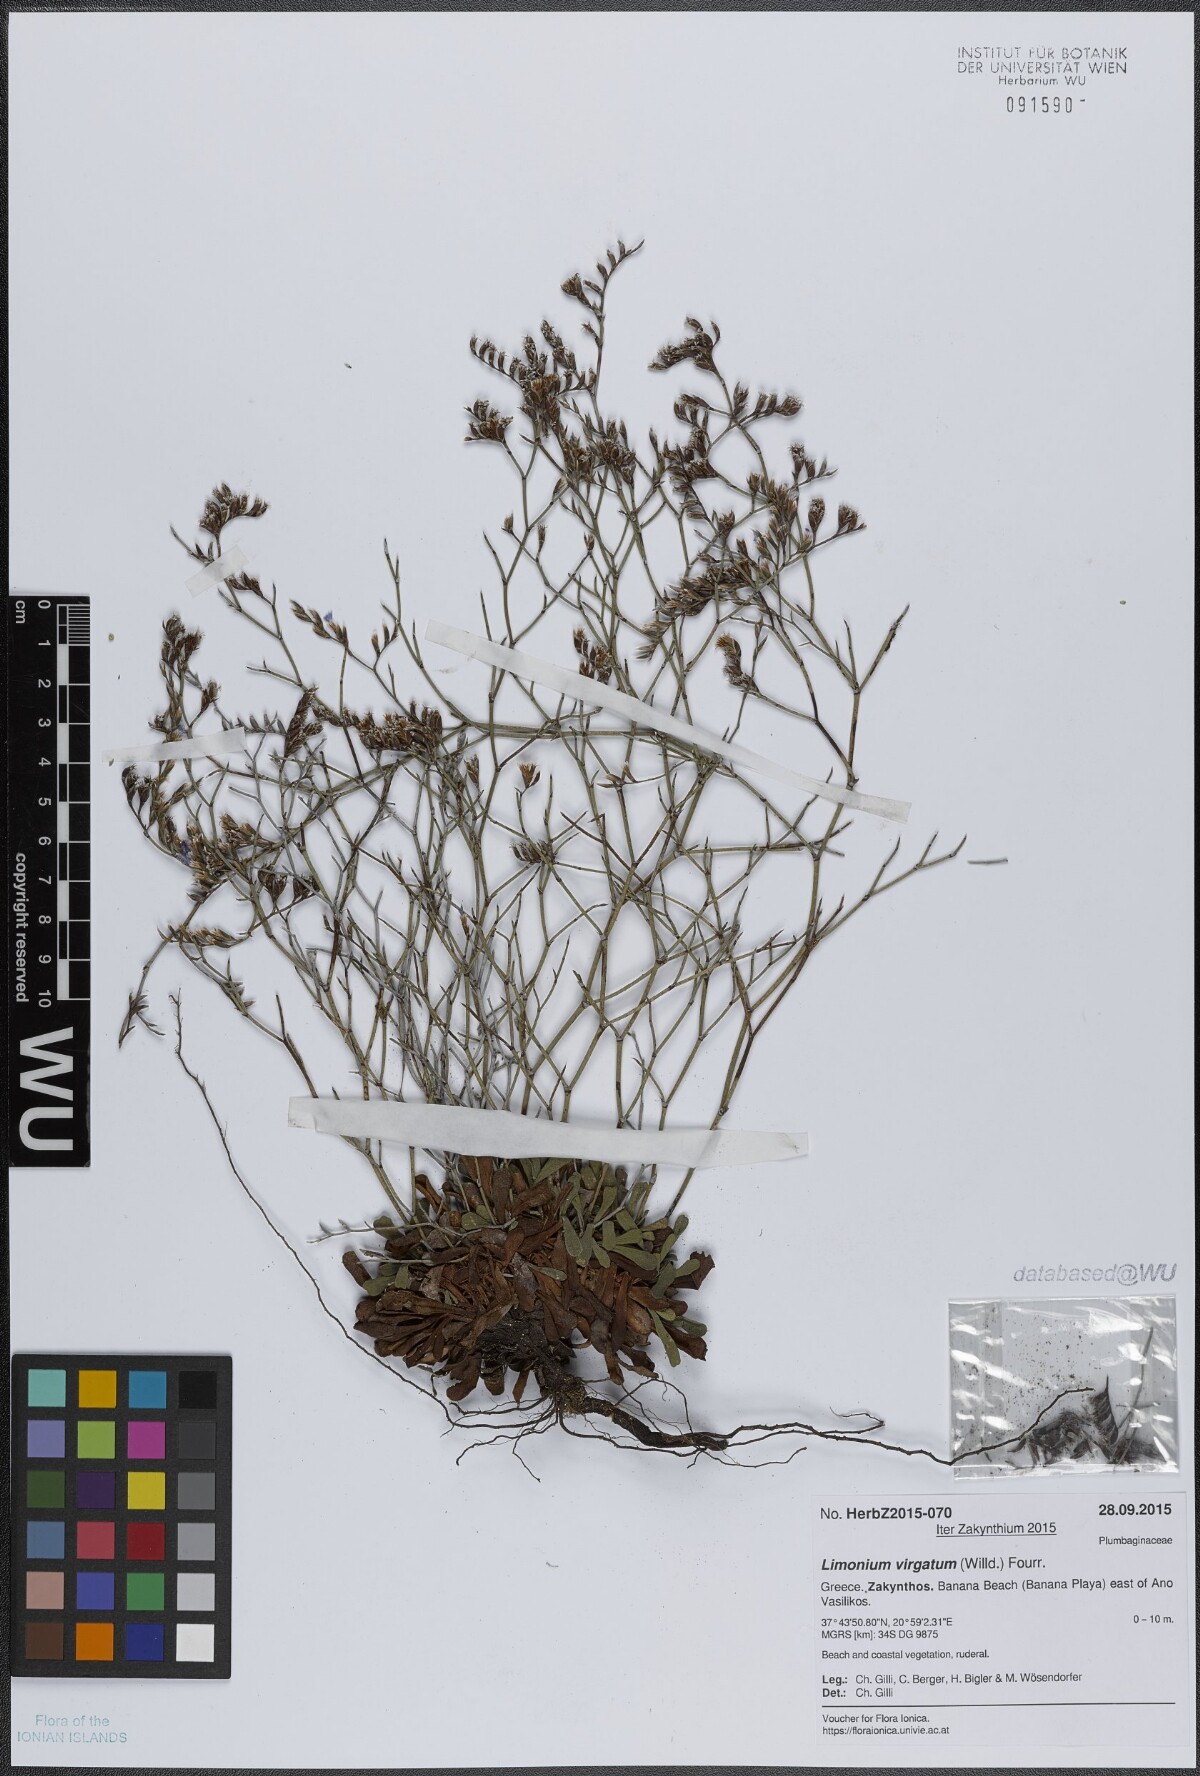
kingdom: Plantae
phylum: Tracheophyta
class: Magnoliopsida
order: Caryophyllales
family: Plumbaginaceae
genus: Limonium
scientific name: Limonium virgatum
